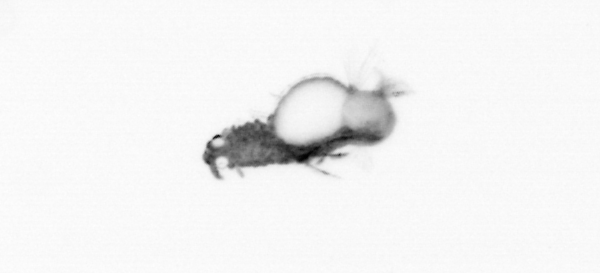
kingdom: Animalia
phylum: Annelida
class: Polychaeta
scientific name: Polychaeta
